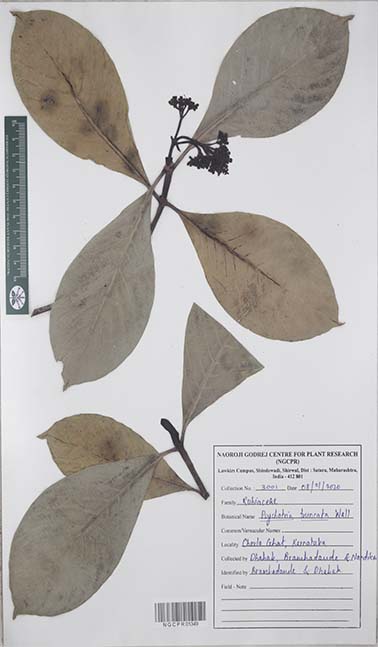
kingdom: Plantae
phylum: Tracheophyta
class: Magnoliopsida
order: Gentianales
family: Rubiaceae
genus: Psychotria
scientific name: Psychotria truncata
